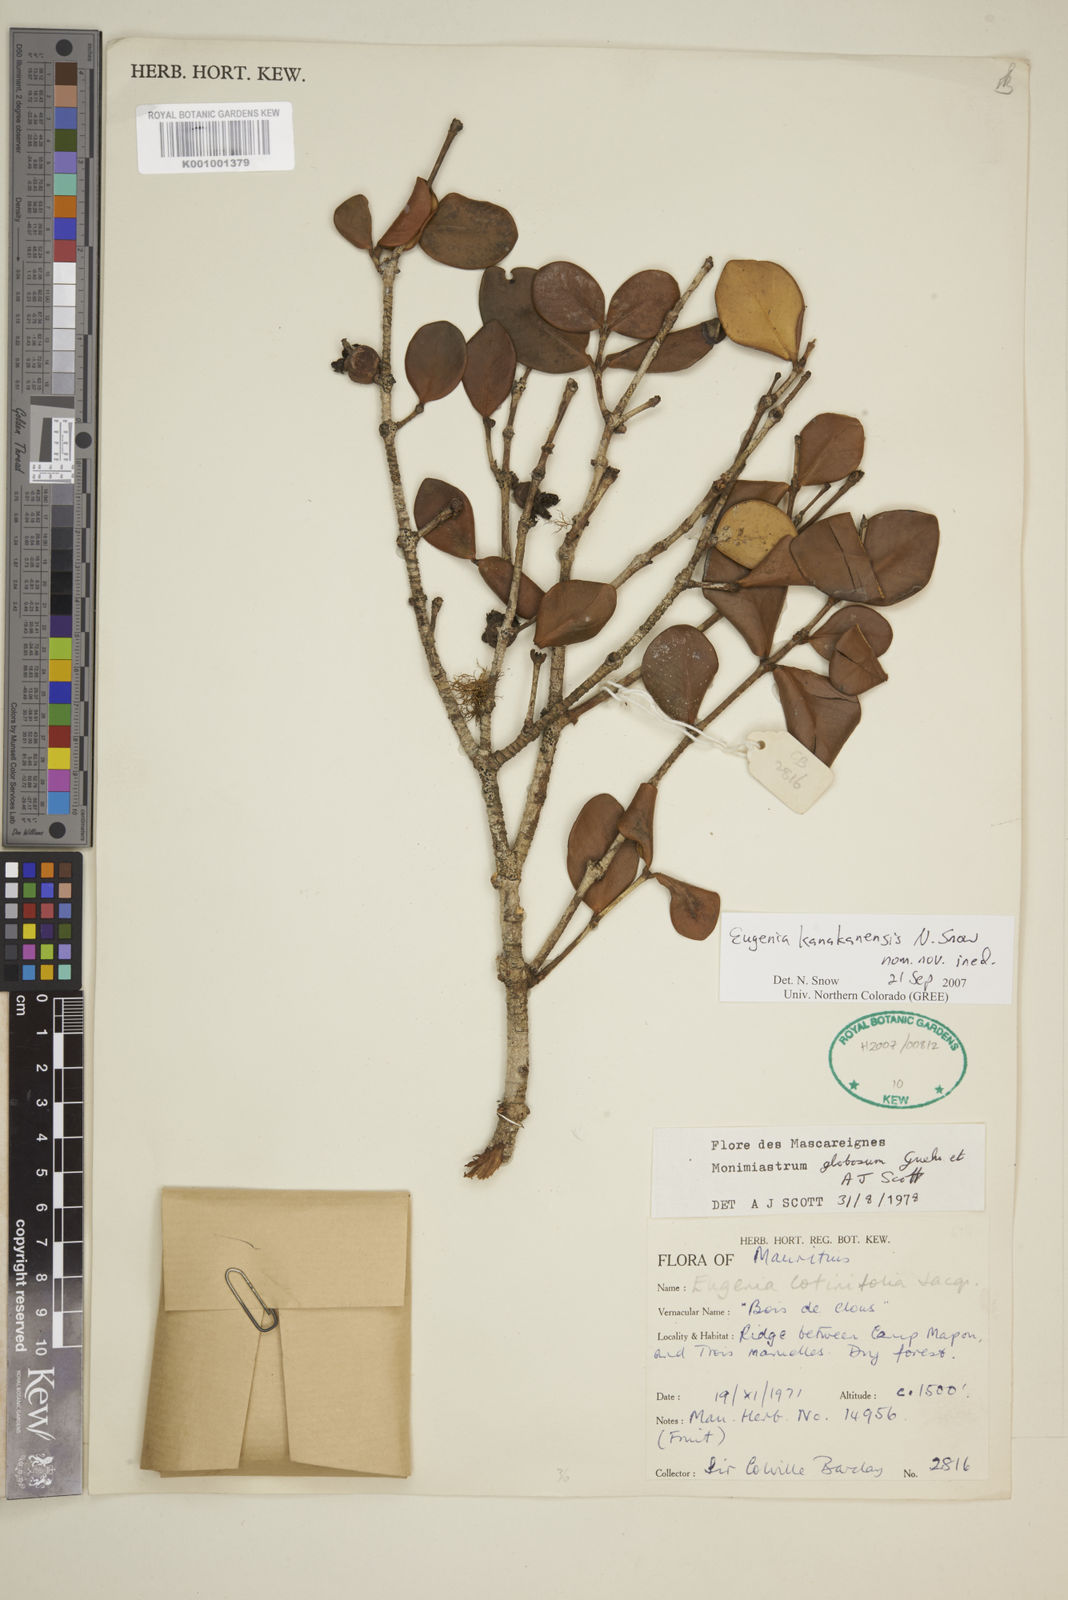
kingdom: Plantae
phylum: Tracheophyta
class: Magnoliopsida
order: Myrtales
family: Myrtaceae
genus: Eugenia
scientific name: Eugenia kanakana
